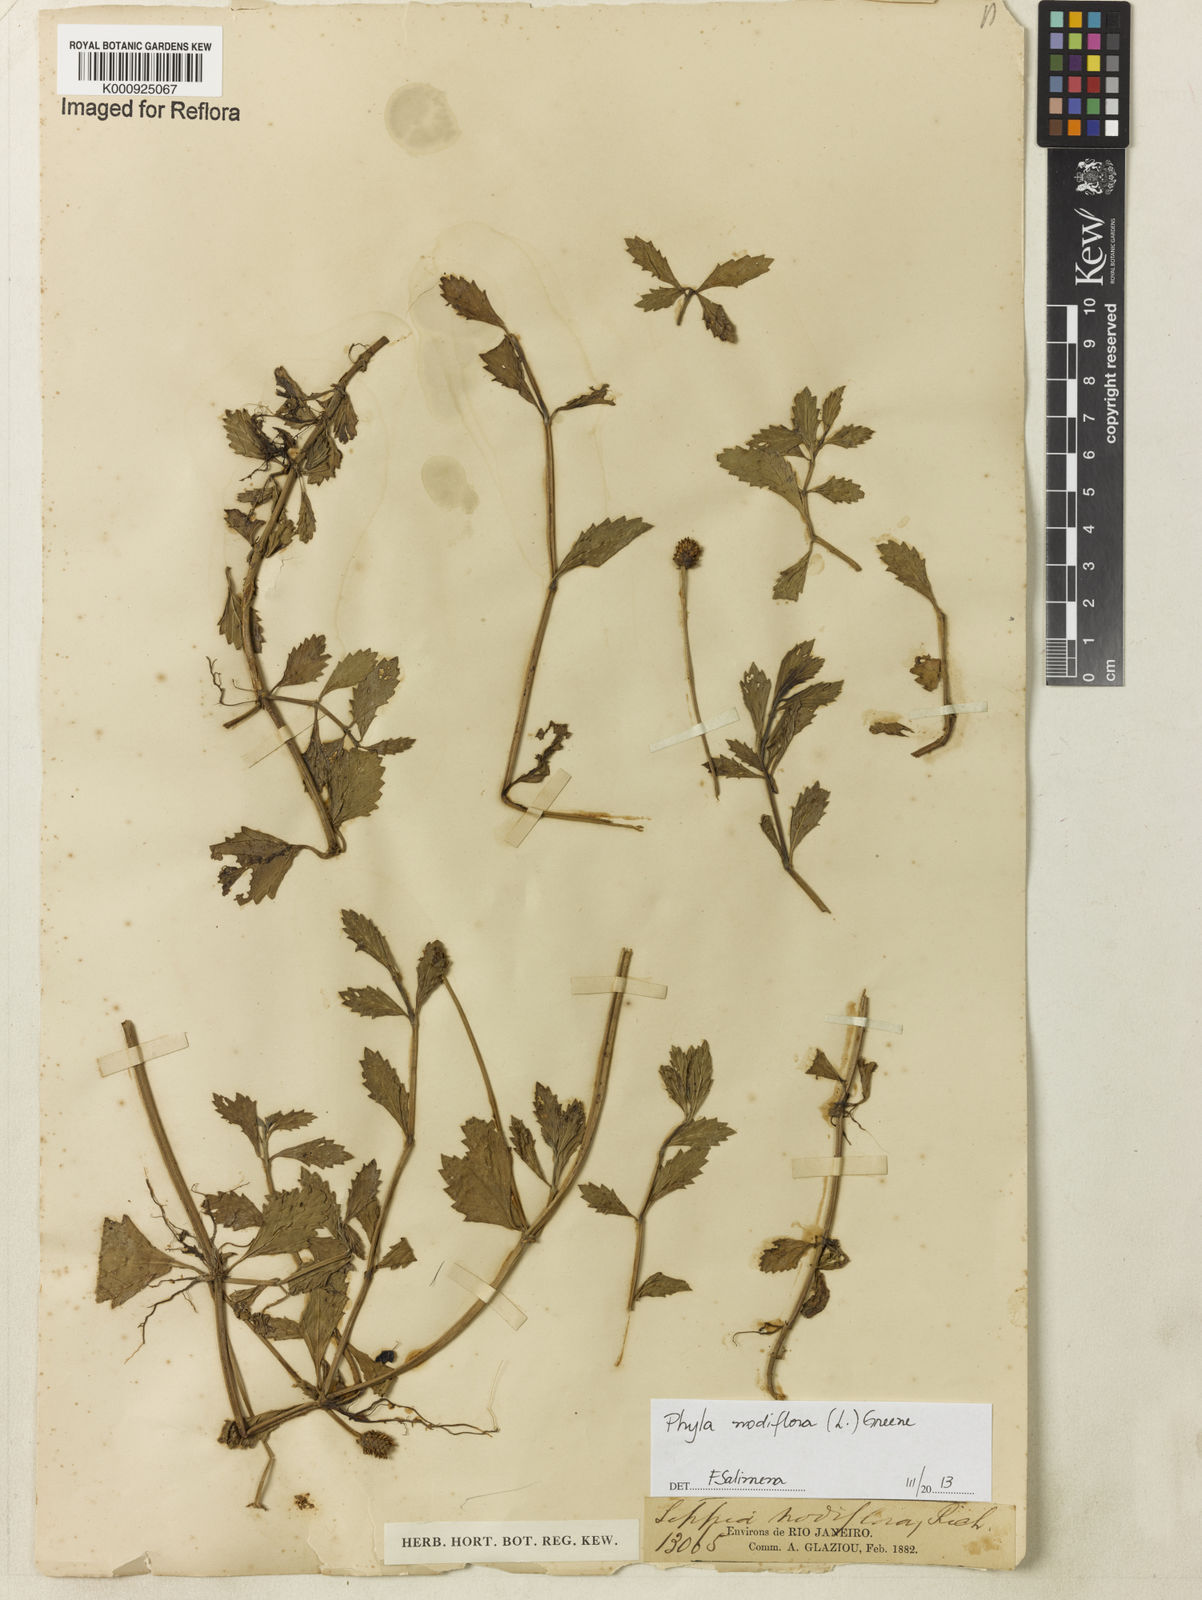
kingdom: Plantae
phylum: Tracheophyta
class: Magnoliopsida
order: Lamiales
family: Verbenaceae
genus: Lippia
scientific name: Lippia
